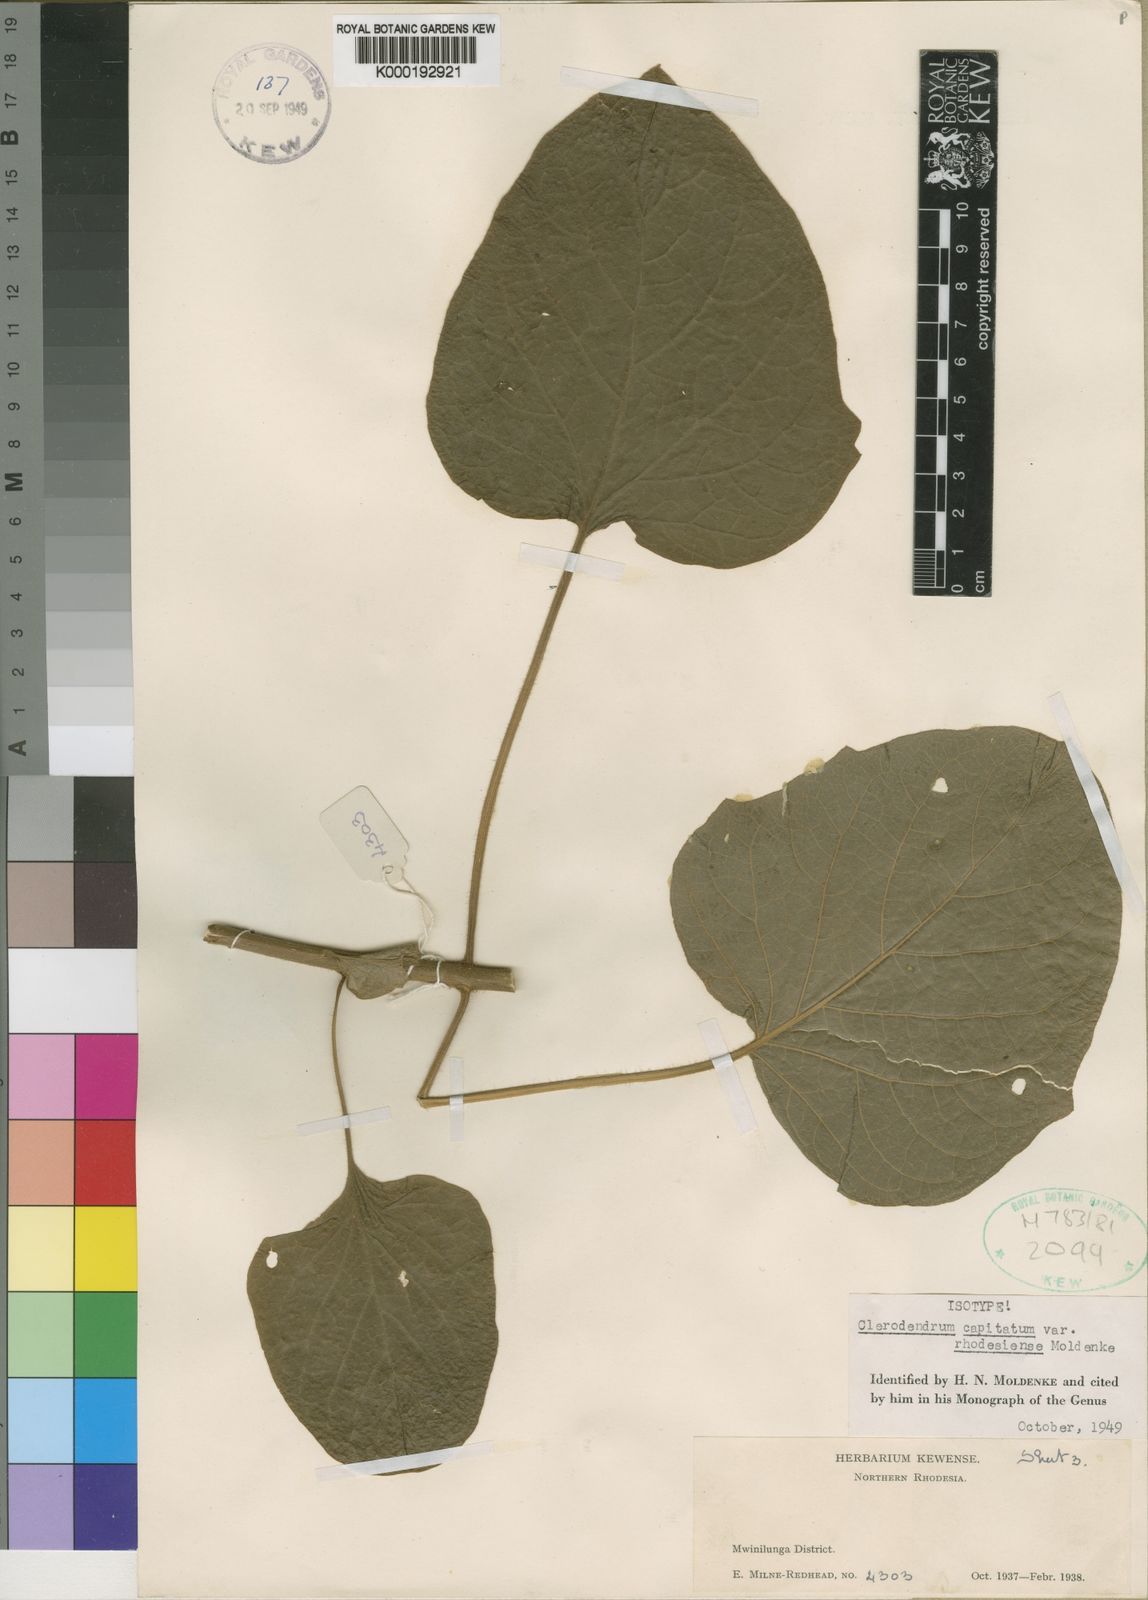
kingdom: Plantae
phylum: Tracheophyta
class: Magnoliopsida
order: Lamiales
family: Lamiaceae
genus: Clerodendrum
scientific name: Clerodendrum
